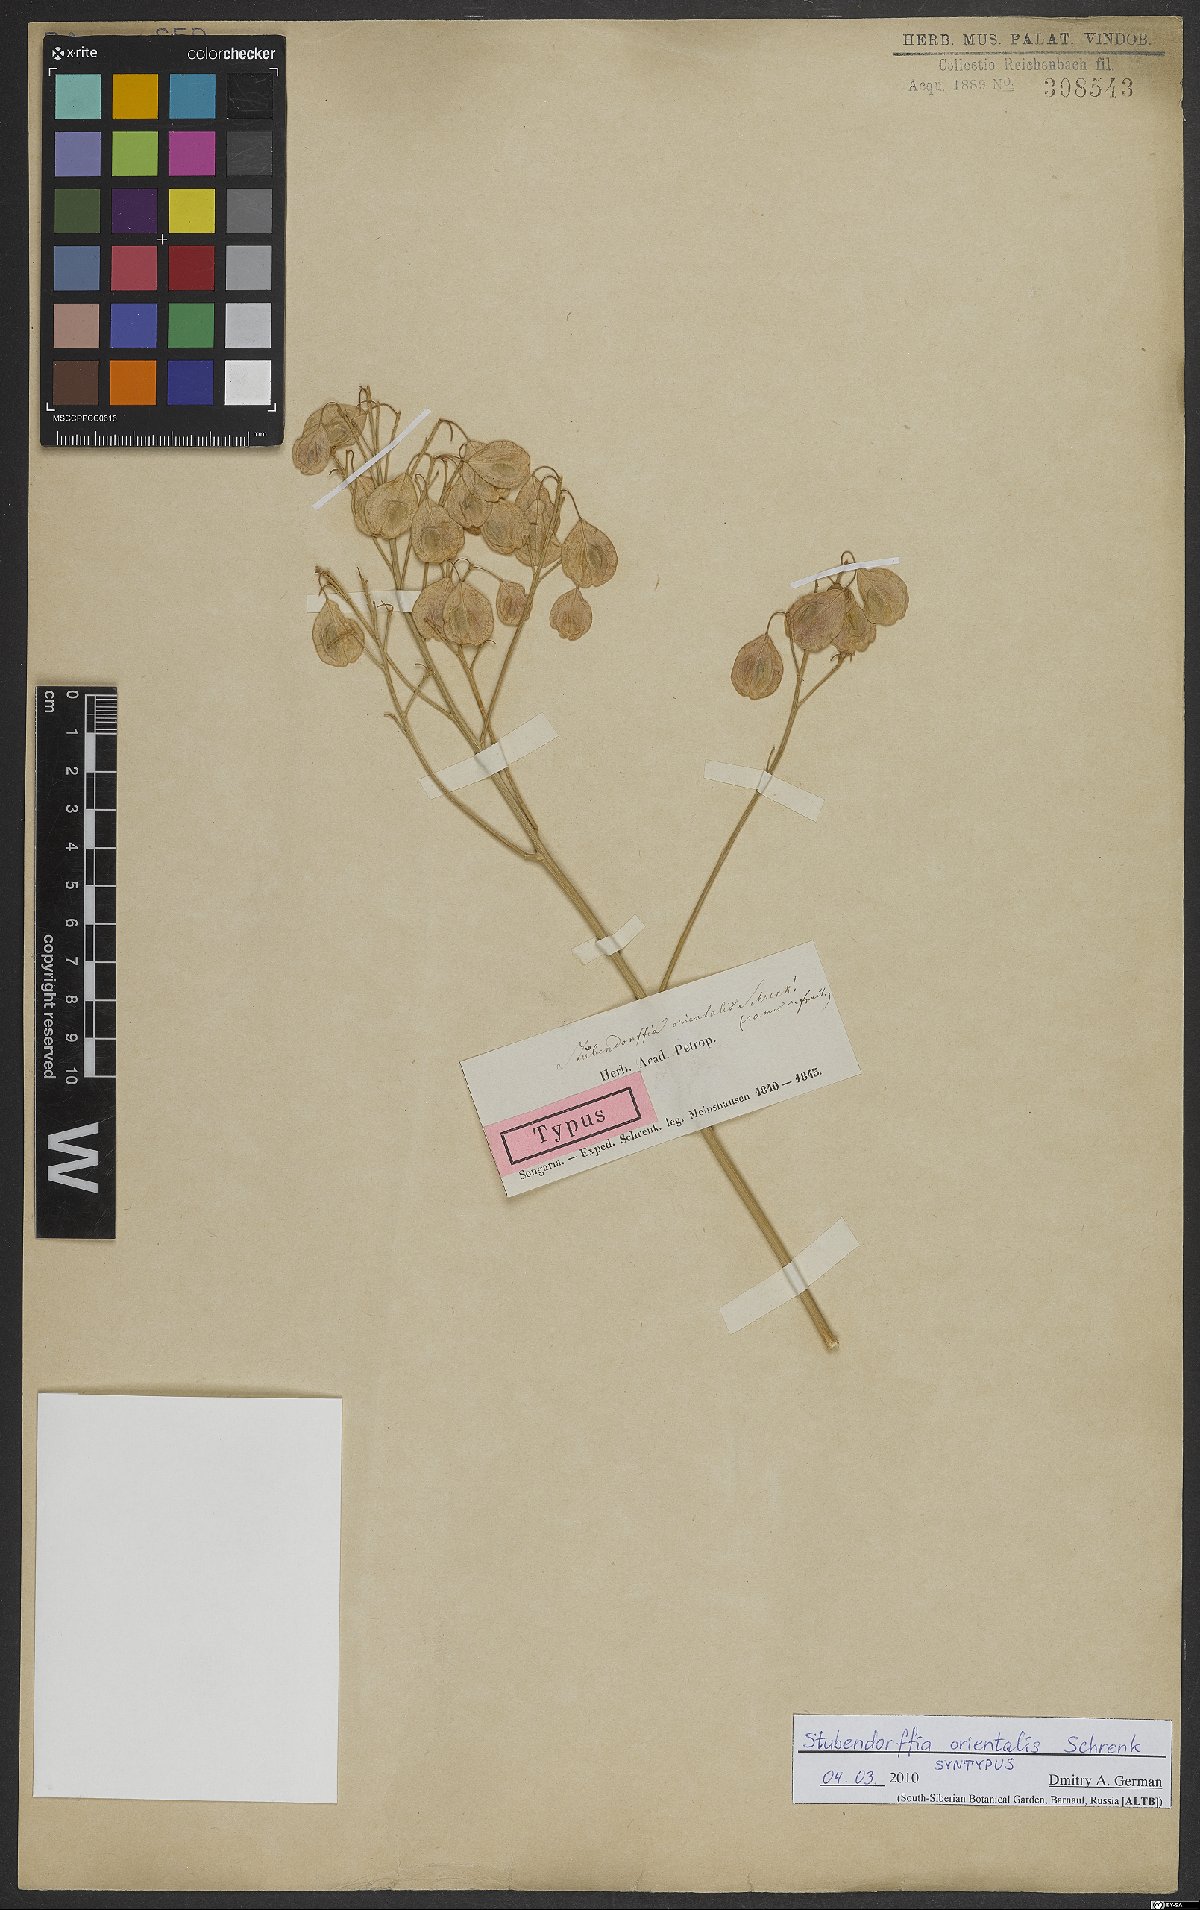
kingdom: Plantae
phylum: Tracheophyta
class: Magnoliopsida
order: Brassicales
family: Brassicaceae
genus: Lepidium
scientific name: Lepidium orientale
